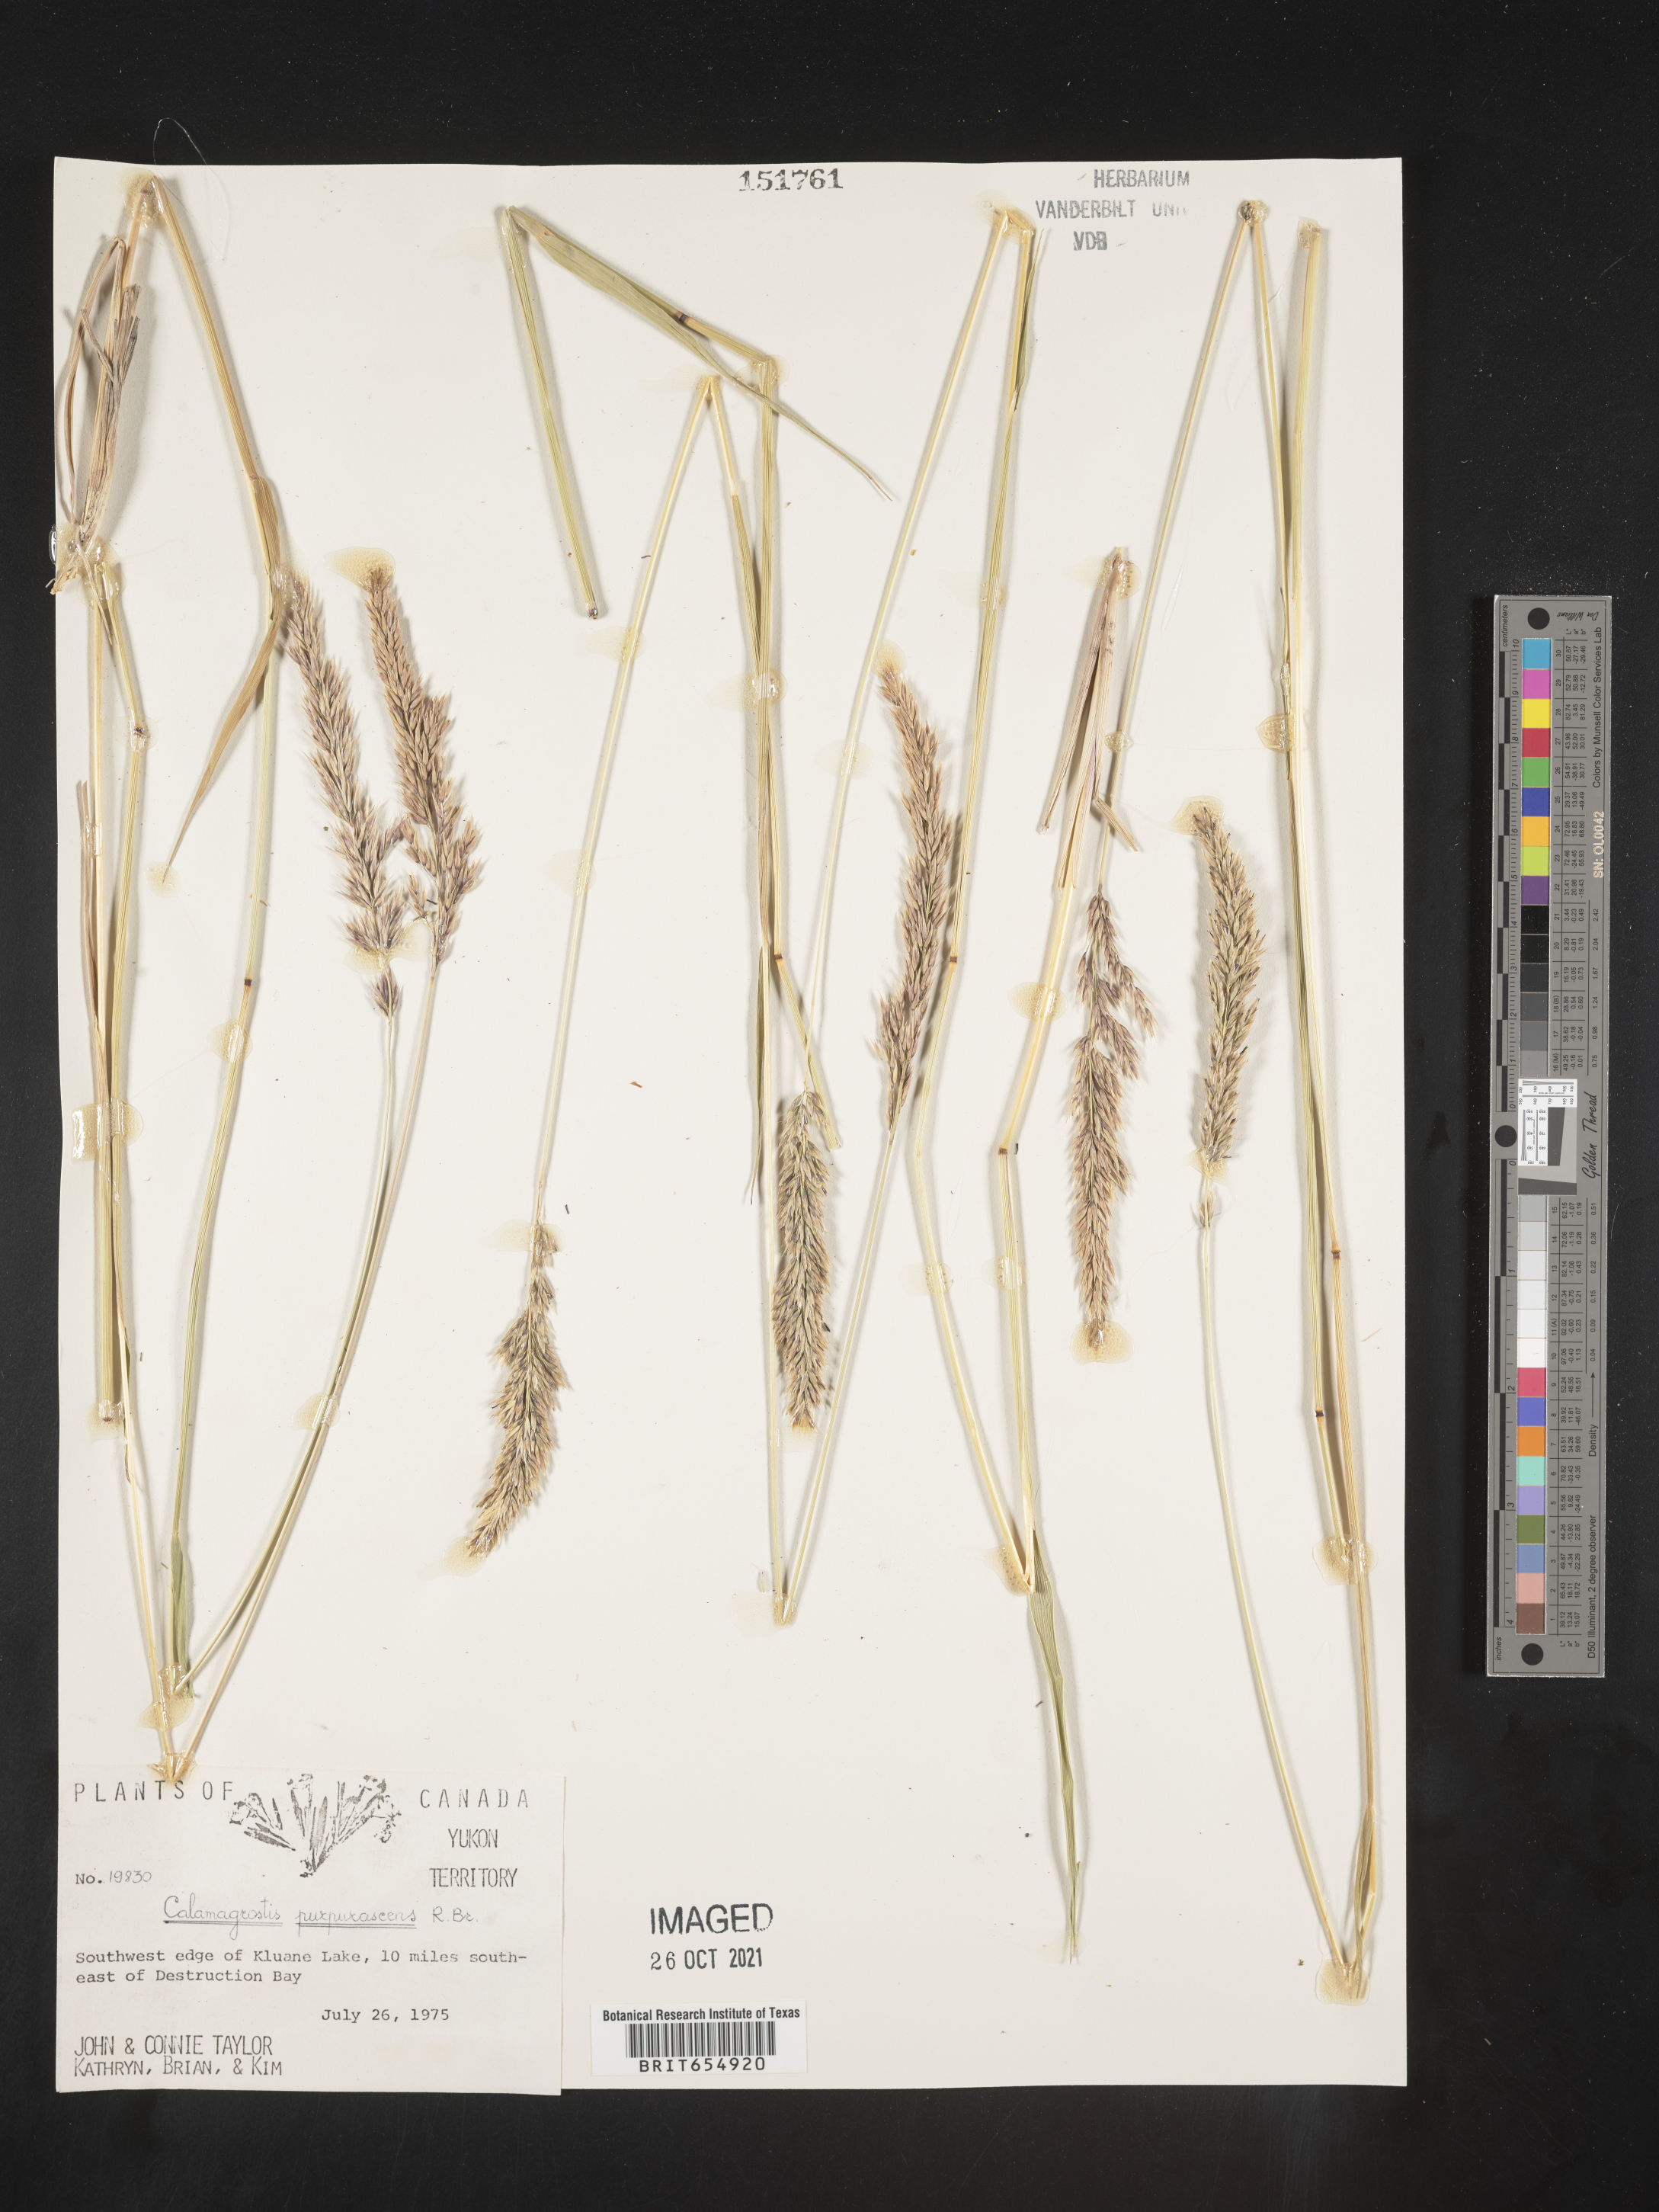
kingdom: Plantae
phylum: Tracheophyta
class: Liliopsida
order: Poales
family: Poaceae
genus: Calamagrostis
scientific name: Calamagrostis
